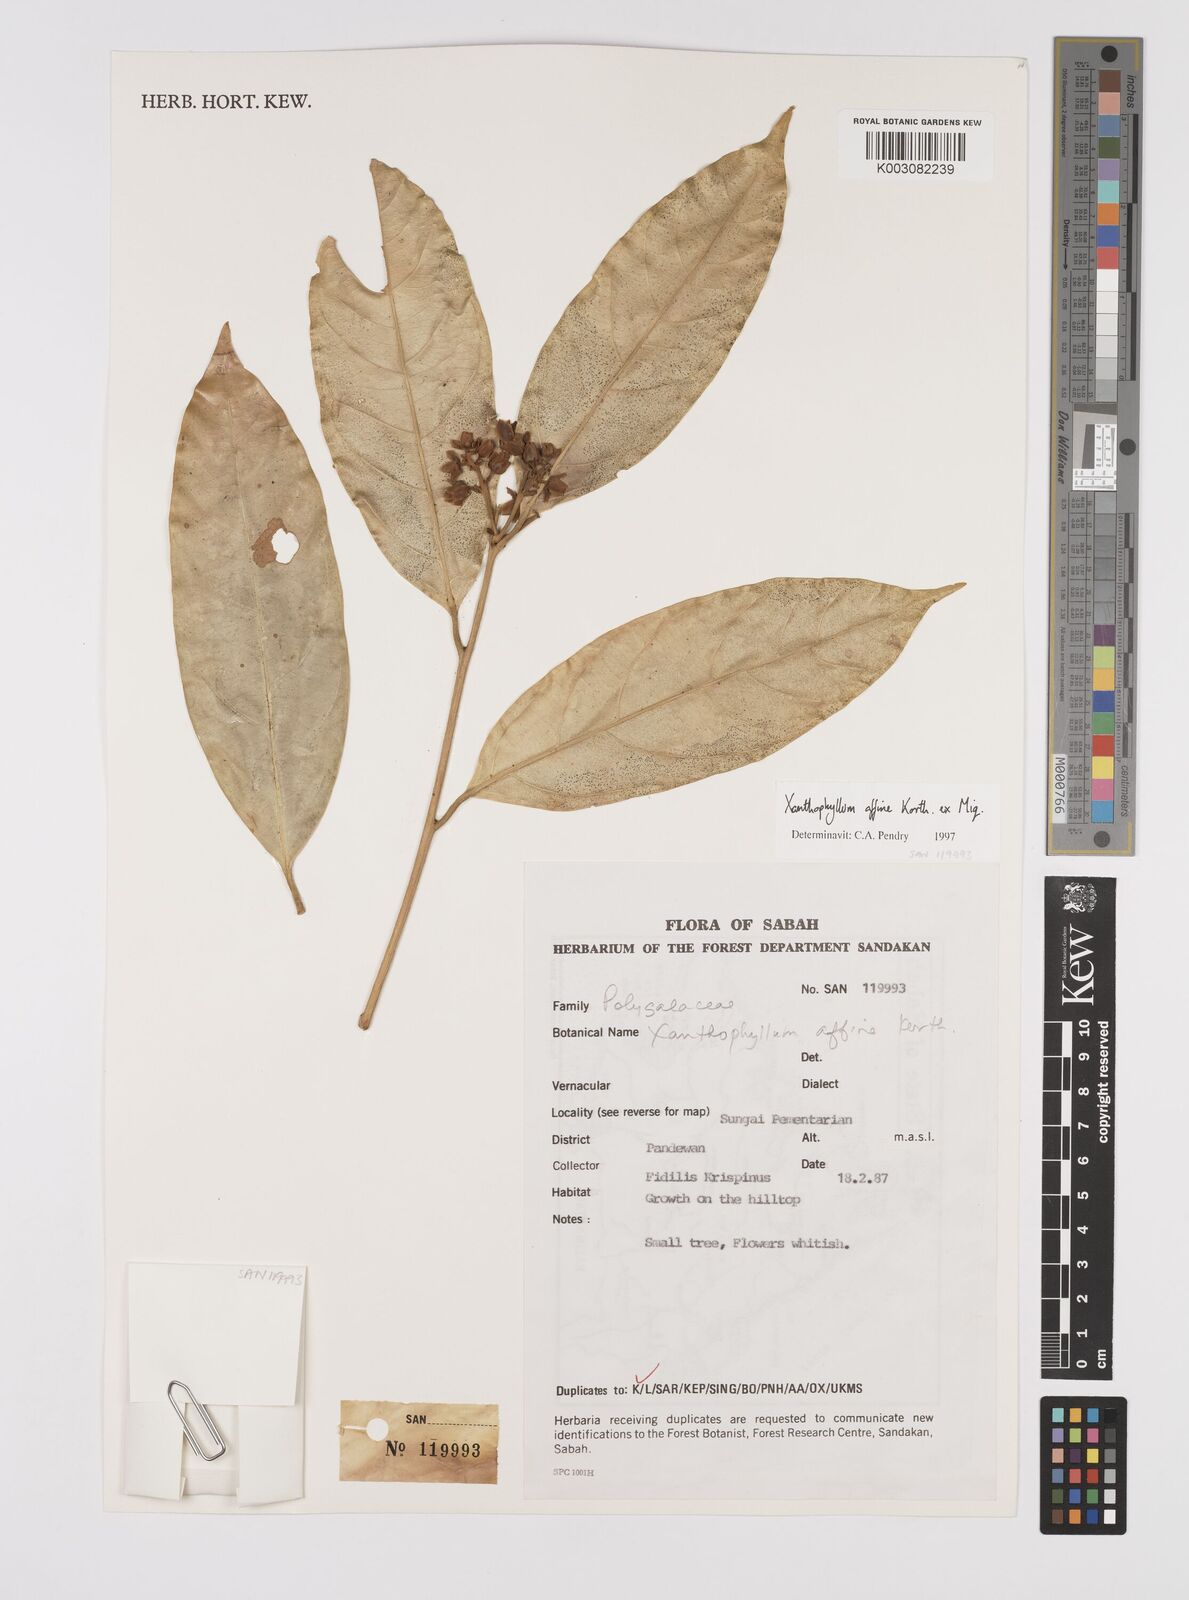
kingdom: Plantae
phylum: Tracheophyta
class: Magnoliopsida
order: Fabales
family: Polygalaceae
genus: Xanthophyllum
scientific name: Xanthophyllum flavescens
